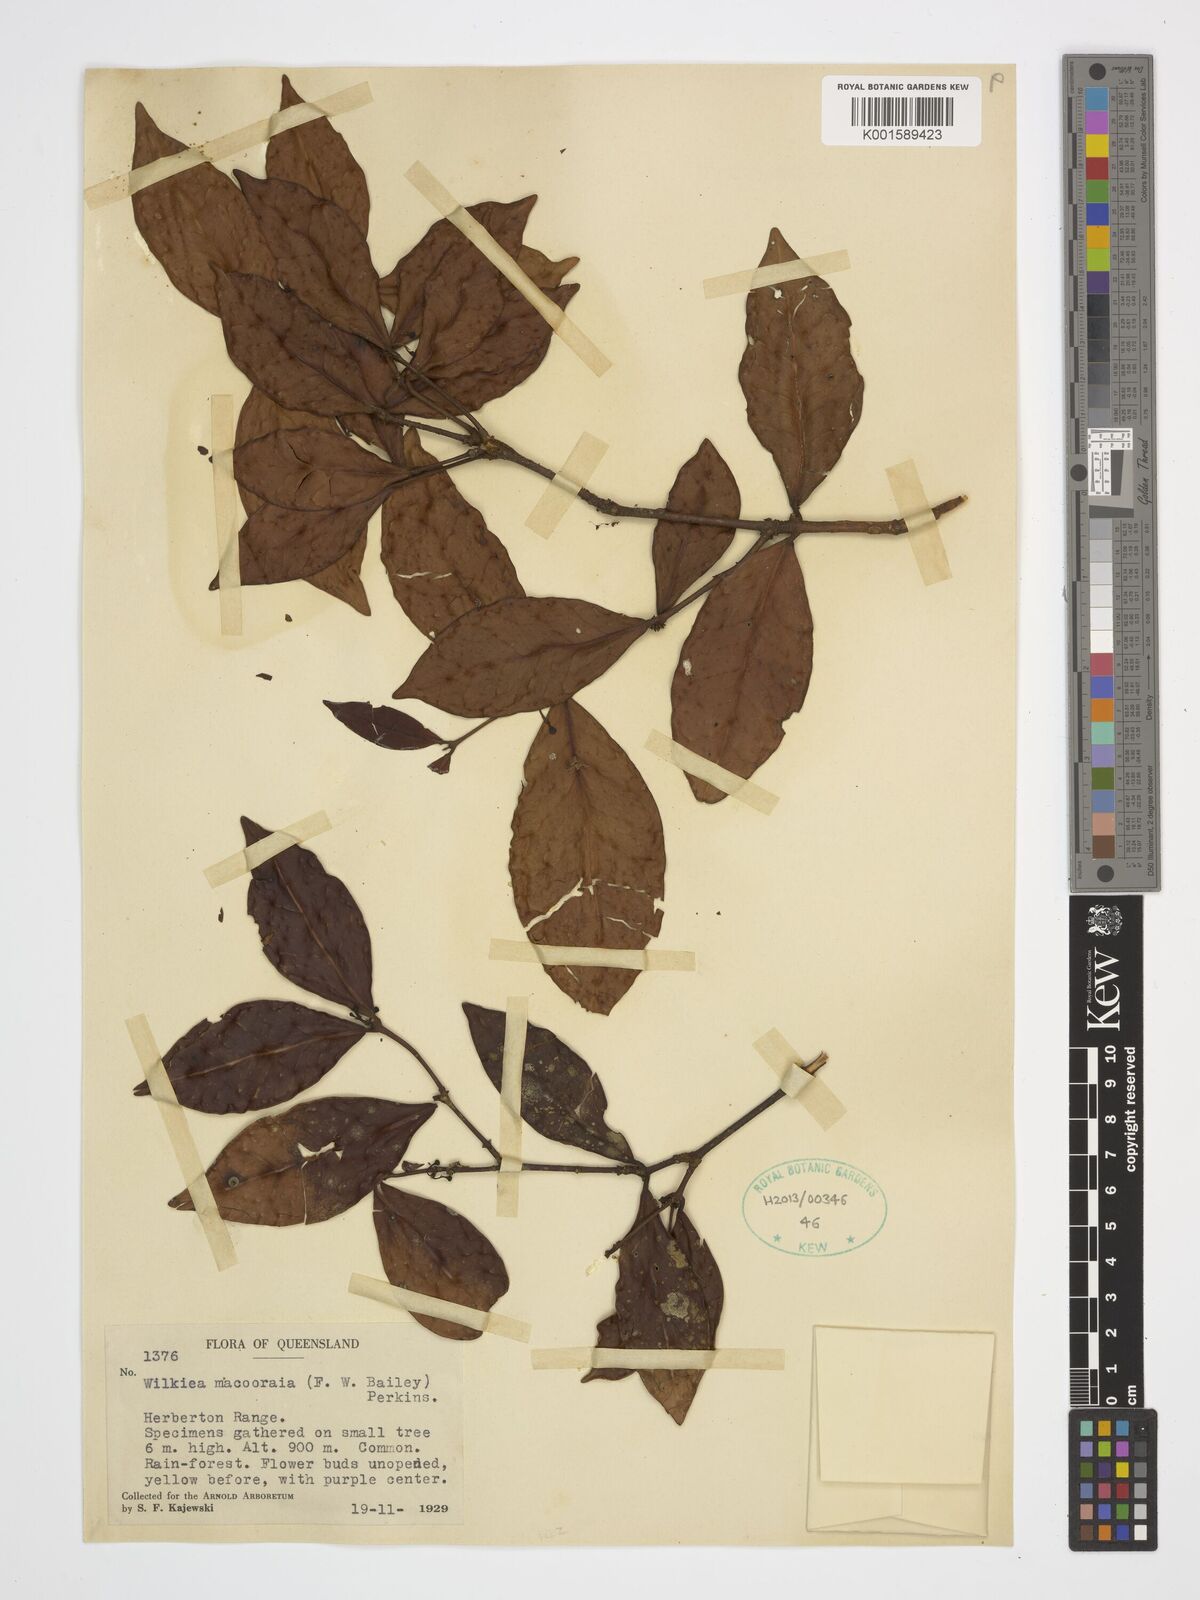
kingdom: Plantae
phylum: Tracheophyta
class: Magnoliopsida
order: Laurales
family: Monimiaceae
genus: Steganthera
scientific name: Steganthera macooraia
